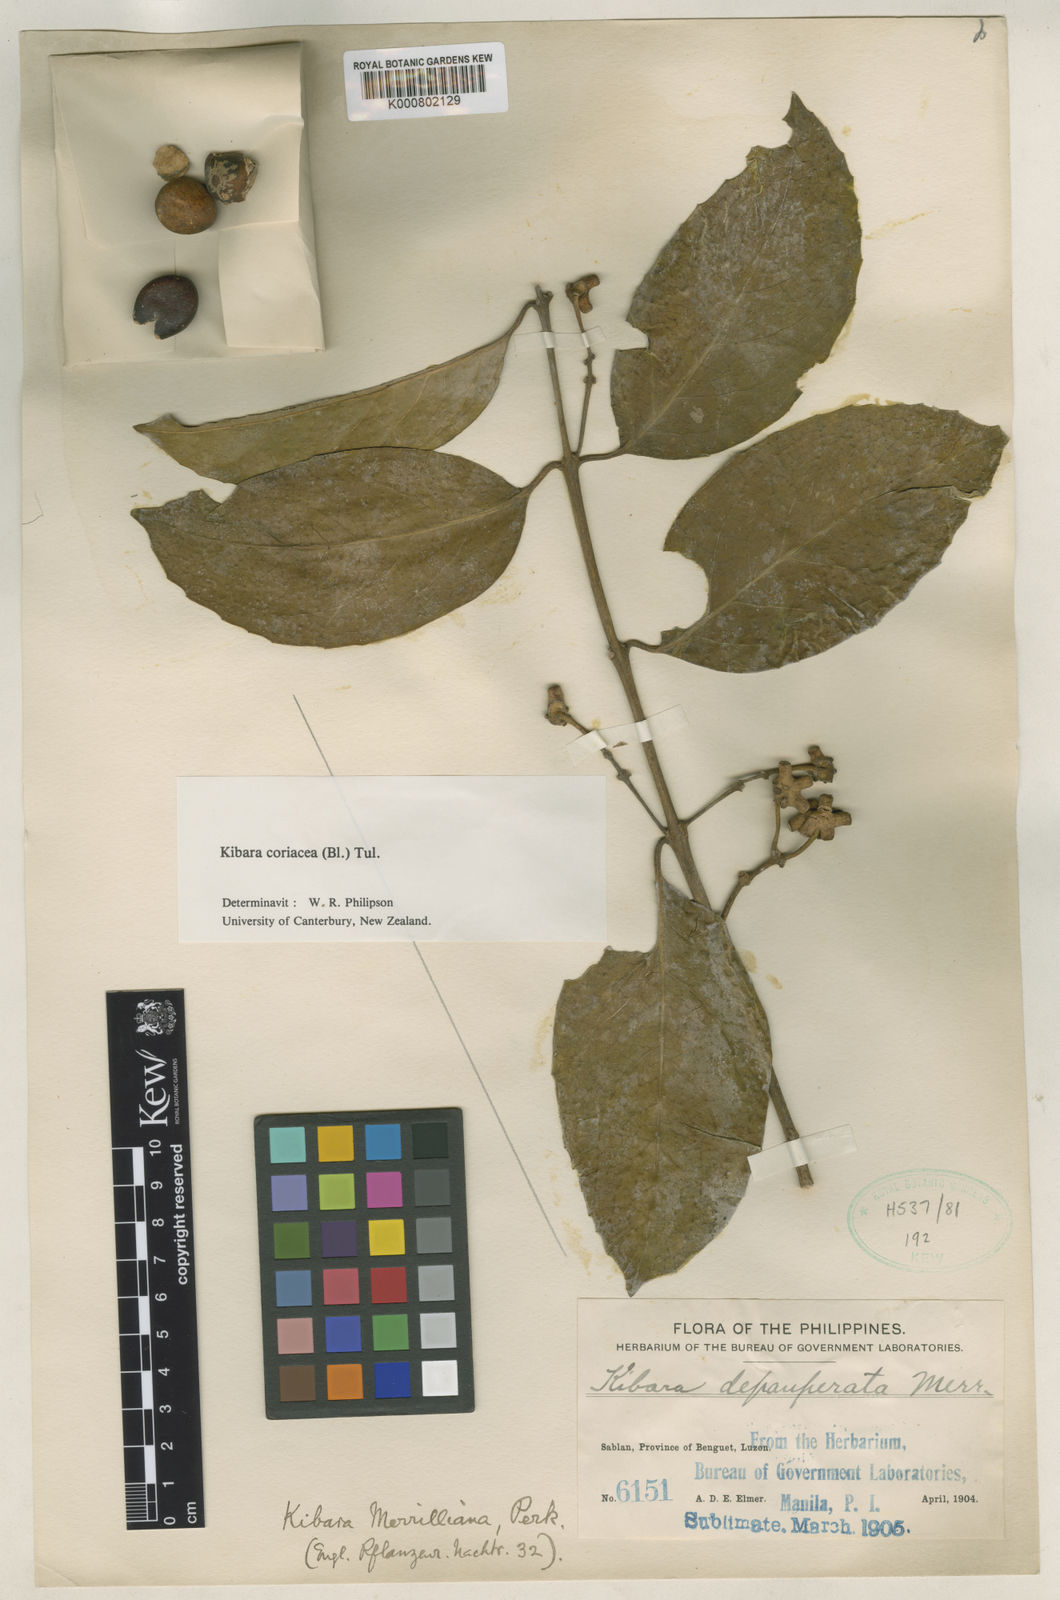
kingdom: Plantae
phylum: Tracheophyta
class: Magnoliopsida
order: Laurales
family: Monimiaceae
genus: Kibara
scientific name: Kibara coriacea
